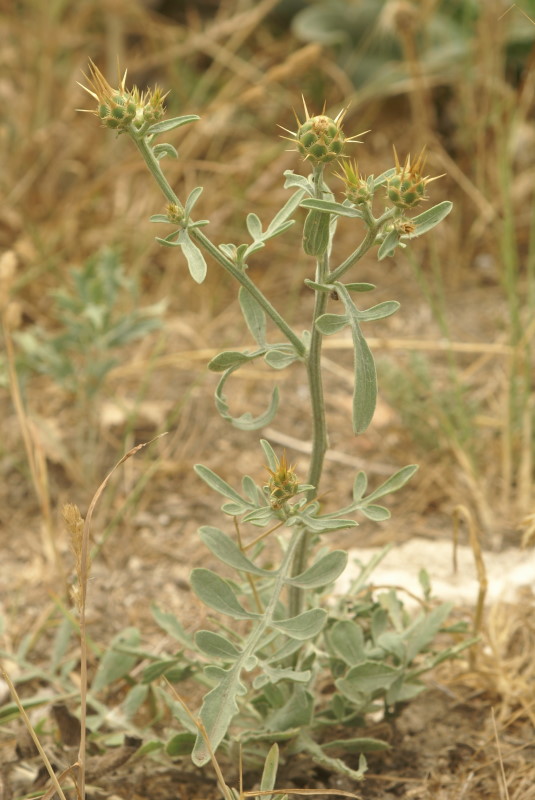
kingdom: Plantae
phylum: Tracheophyta
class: Magnoliopsida
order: Asterales
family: Asteraceae
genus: Centaurea
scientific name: Centaurea solstitialis
